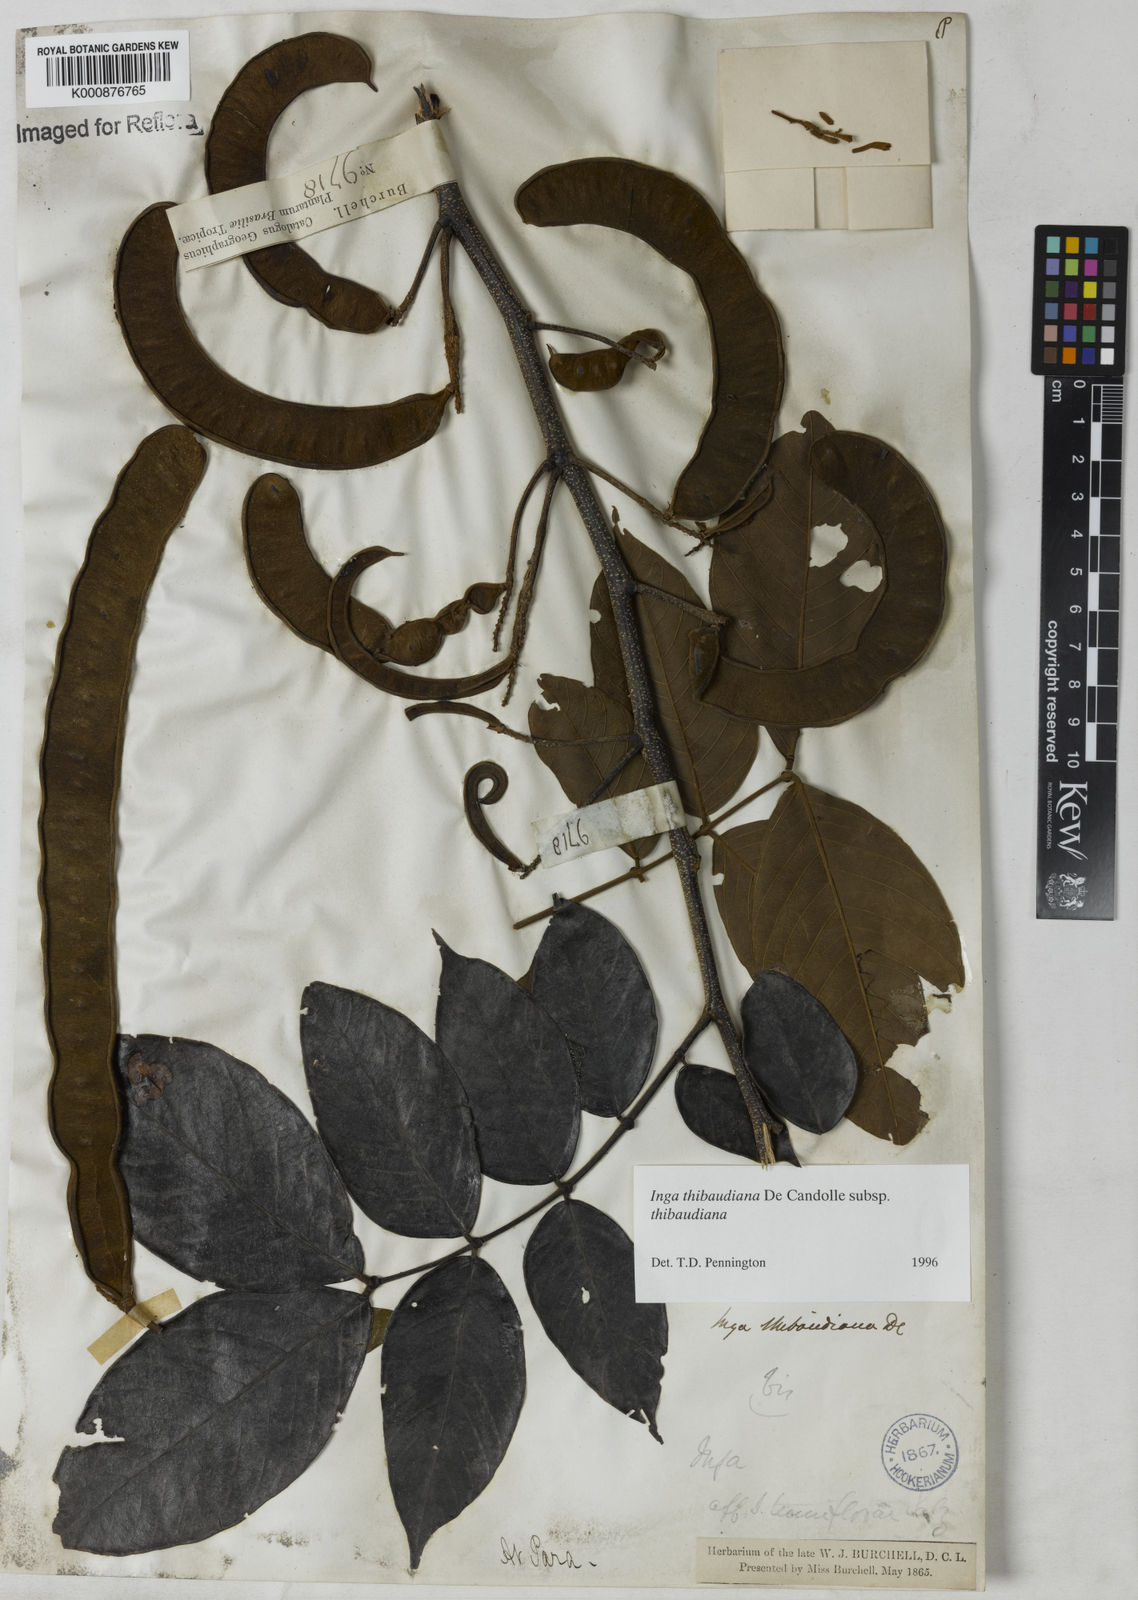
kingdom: Plantae
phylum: Tracheophyta
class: Magnoliopsida
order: Fabales
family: Fabaceae
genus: Inga
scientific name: Inga thibaudiana
